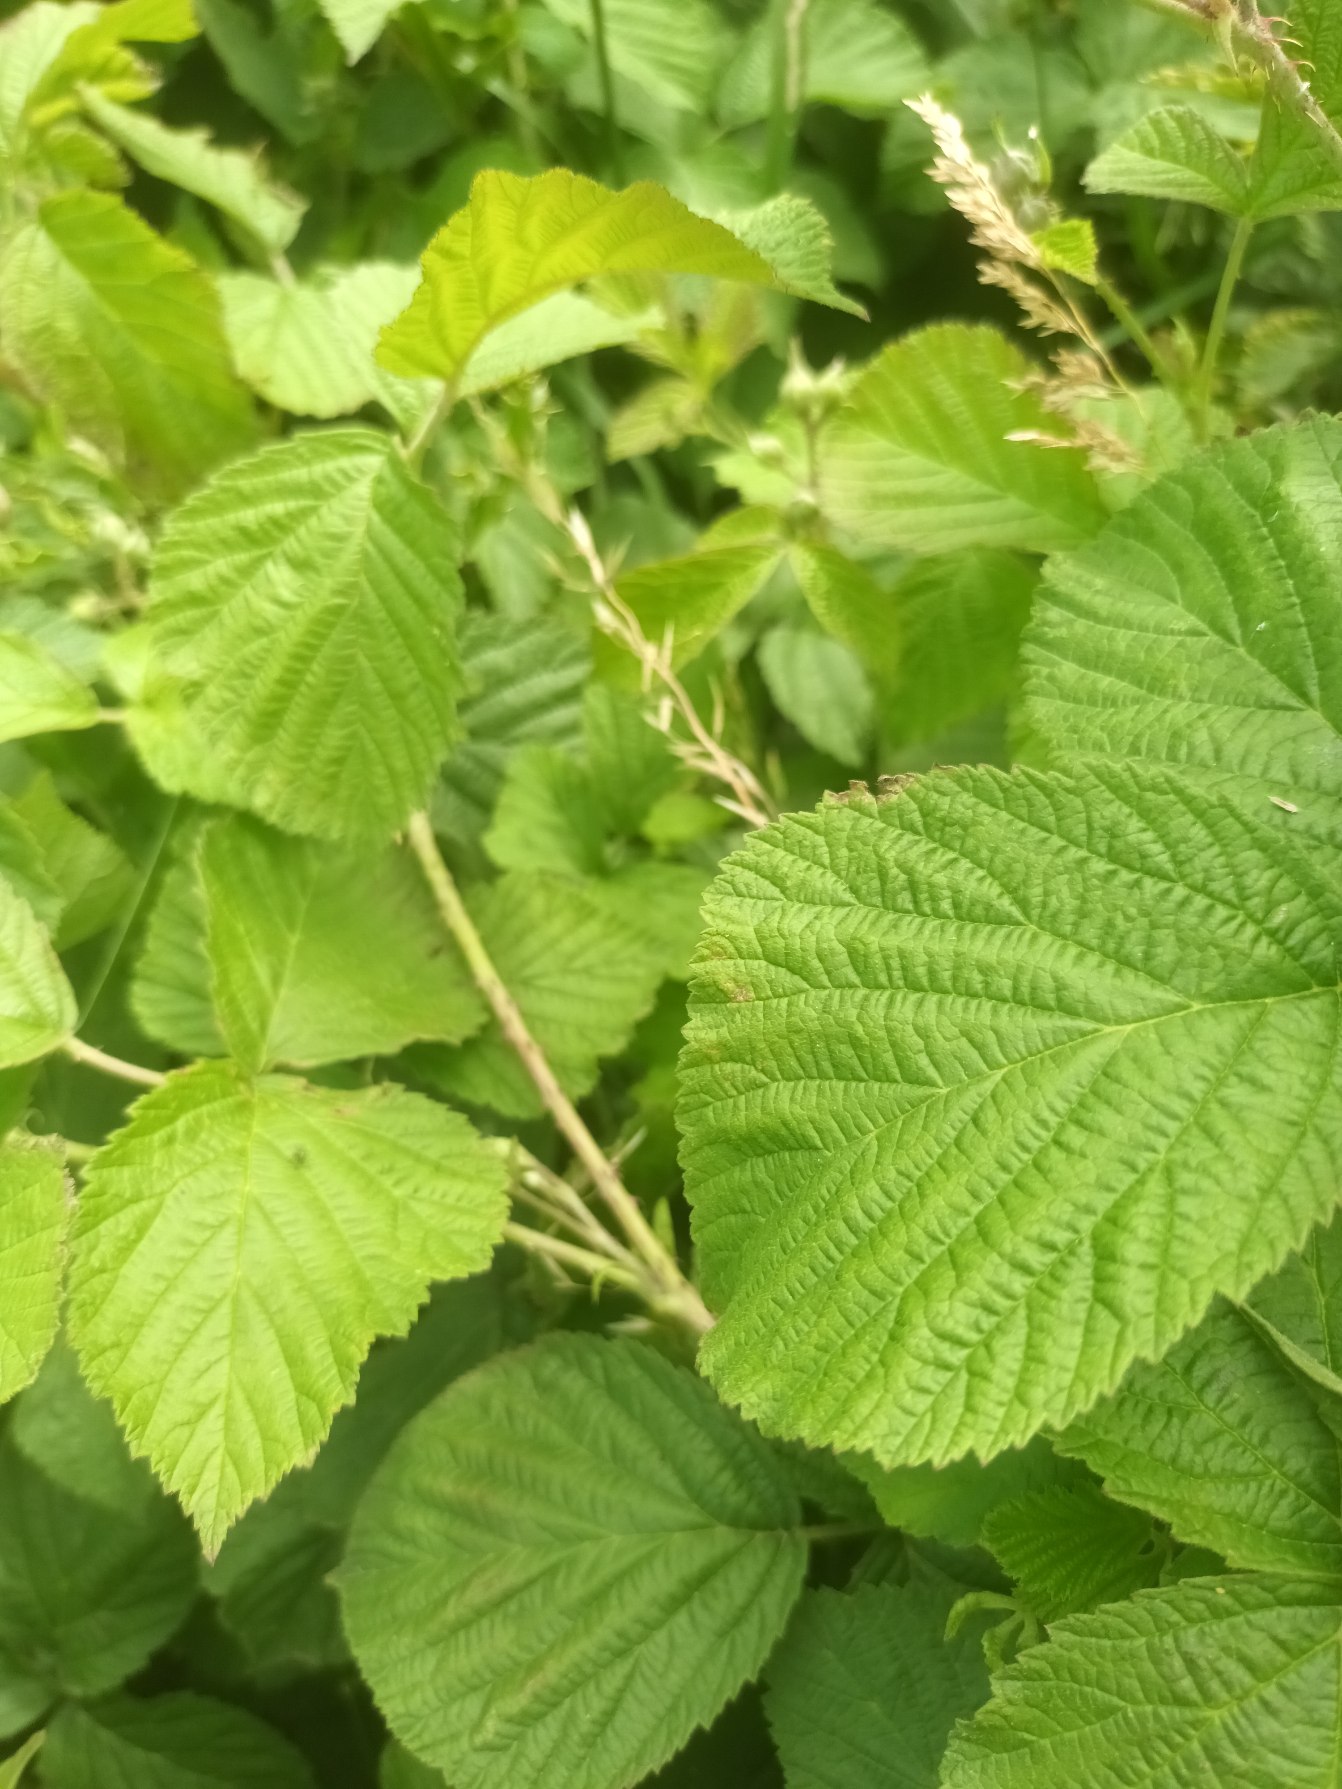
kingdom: Plantae
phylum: Tracheophyta
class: Magnoliopsida
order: Rosales
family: Rosaceae
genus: Rubus
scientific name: Rubus caesius
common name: Korbær
